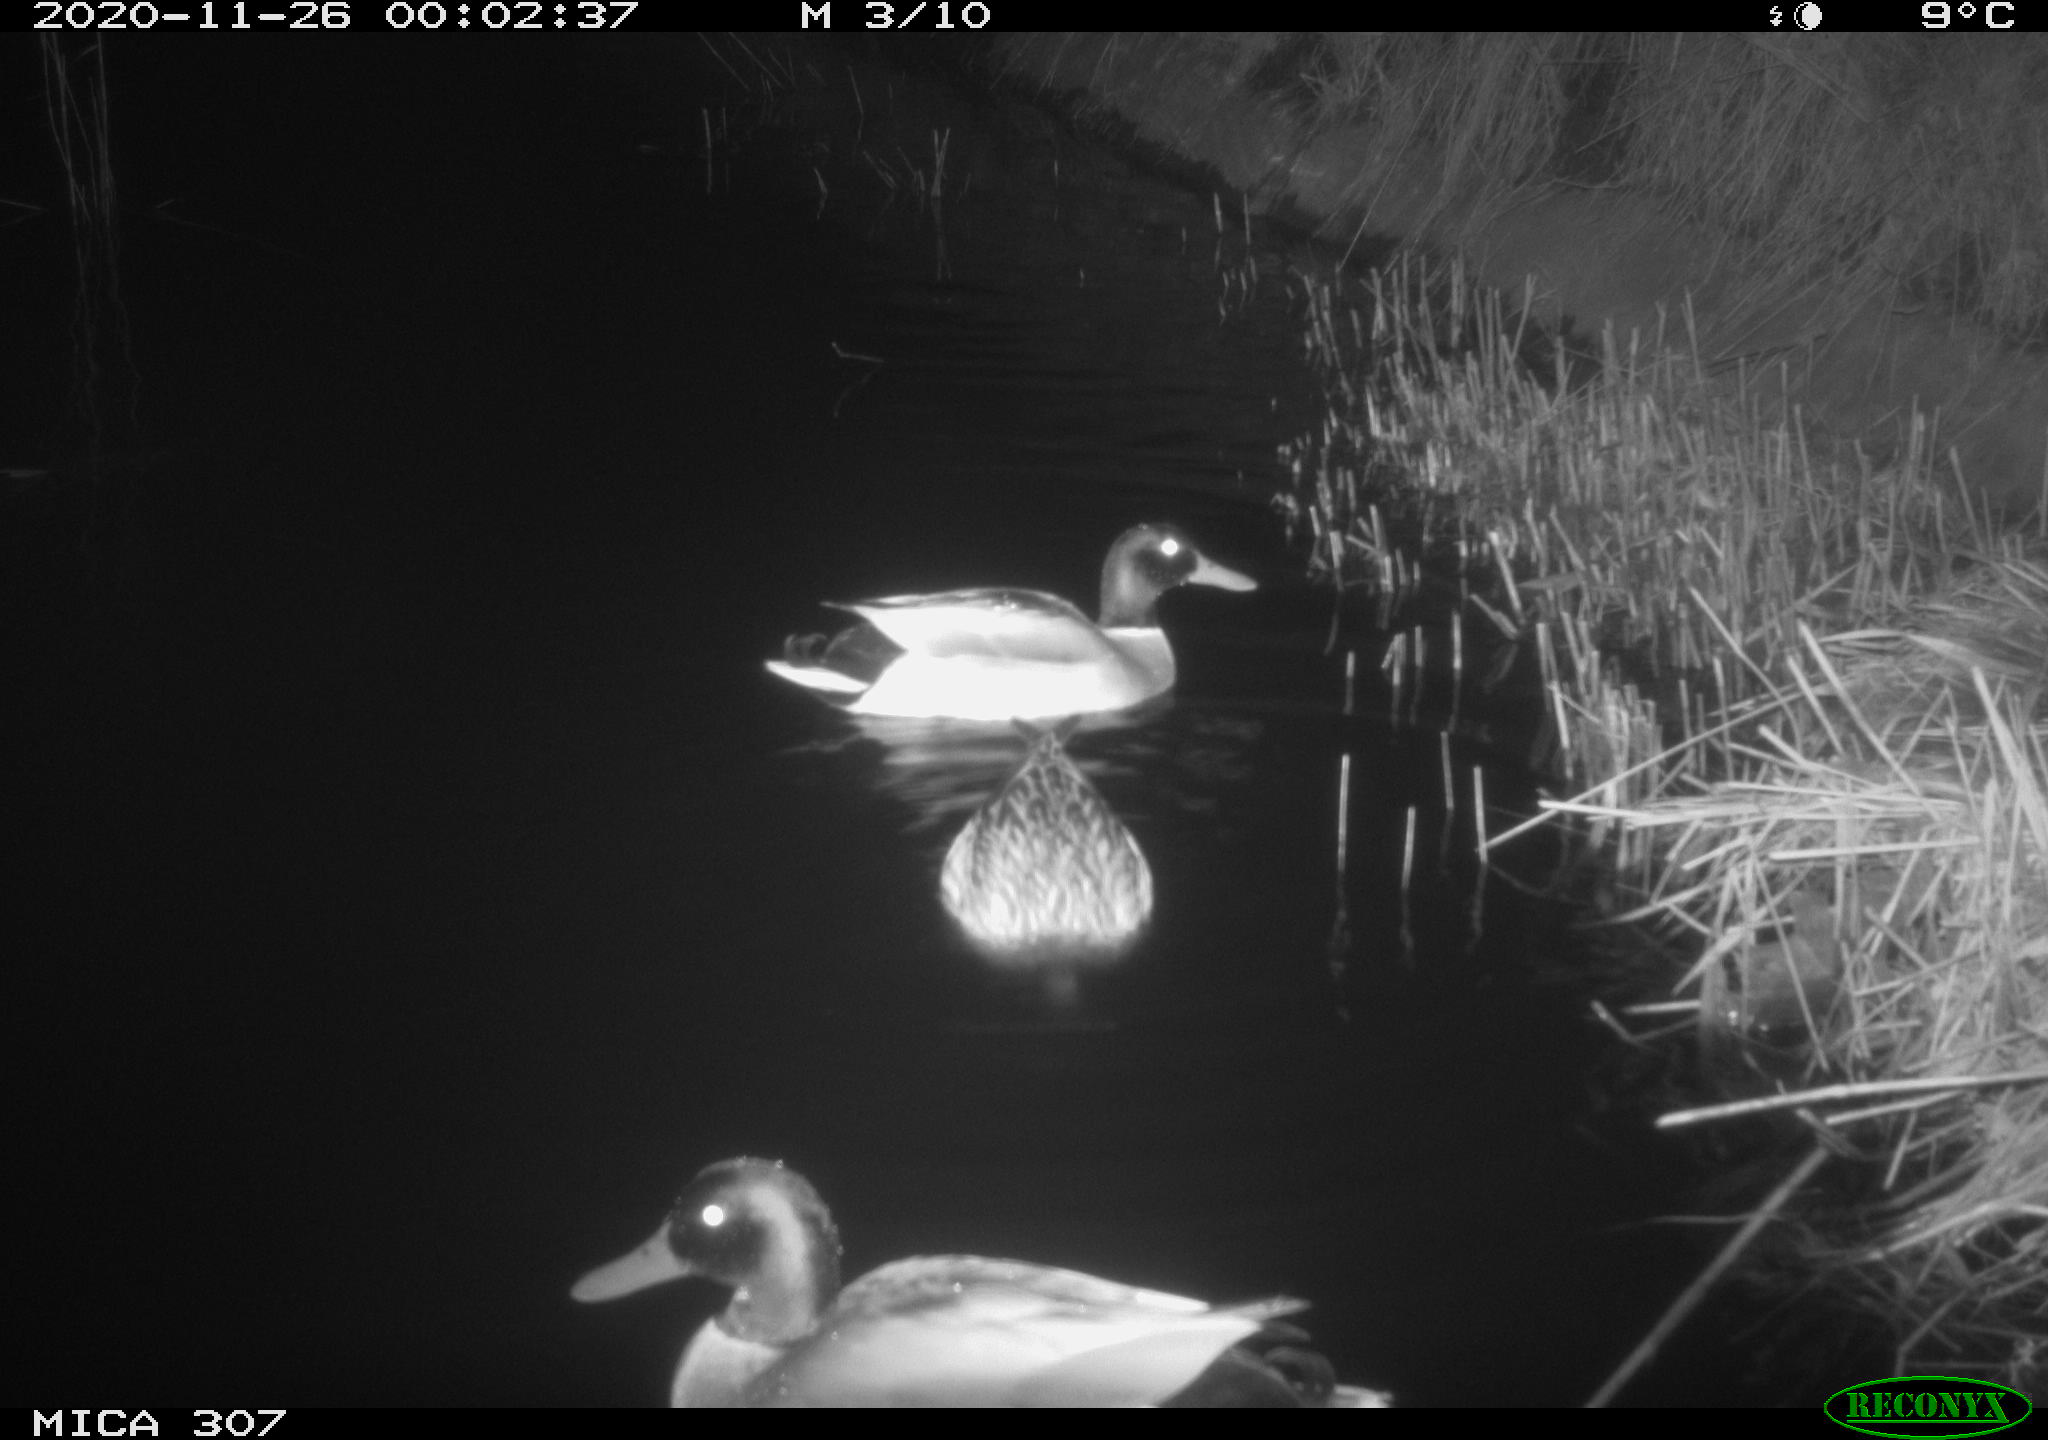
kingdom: Animalia
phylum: Chordata
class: Aves
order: Anseriformes
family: Anatidae
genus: Anas
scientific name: Anas platyrhynchos
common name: Mallard
